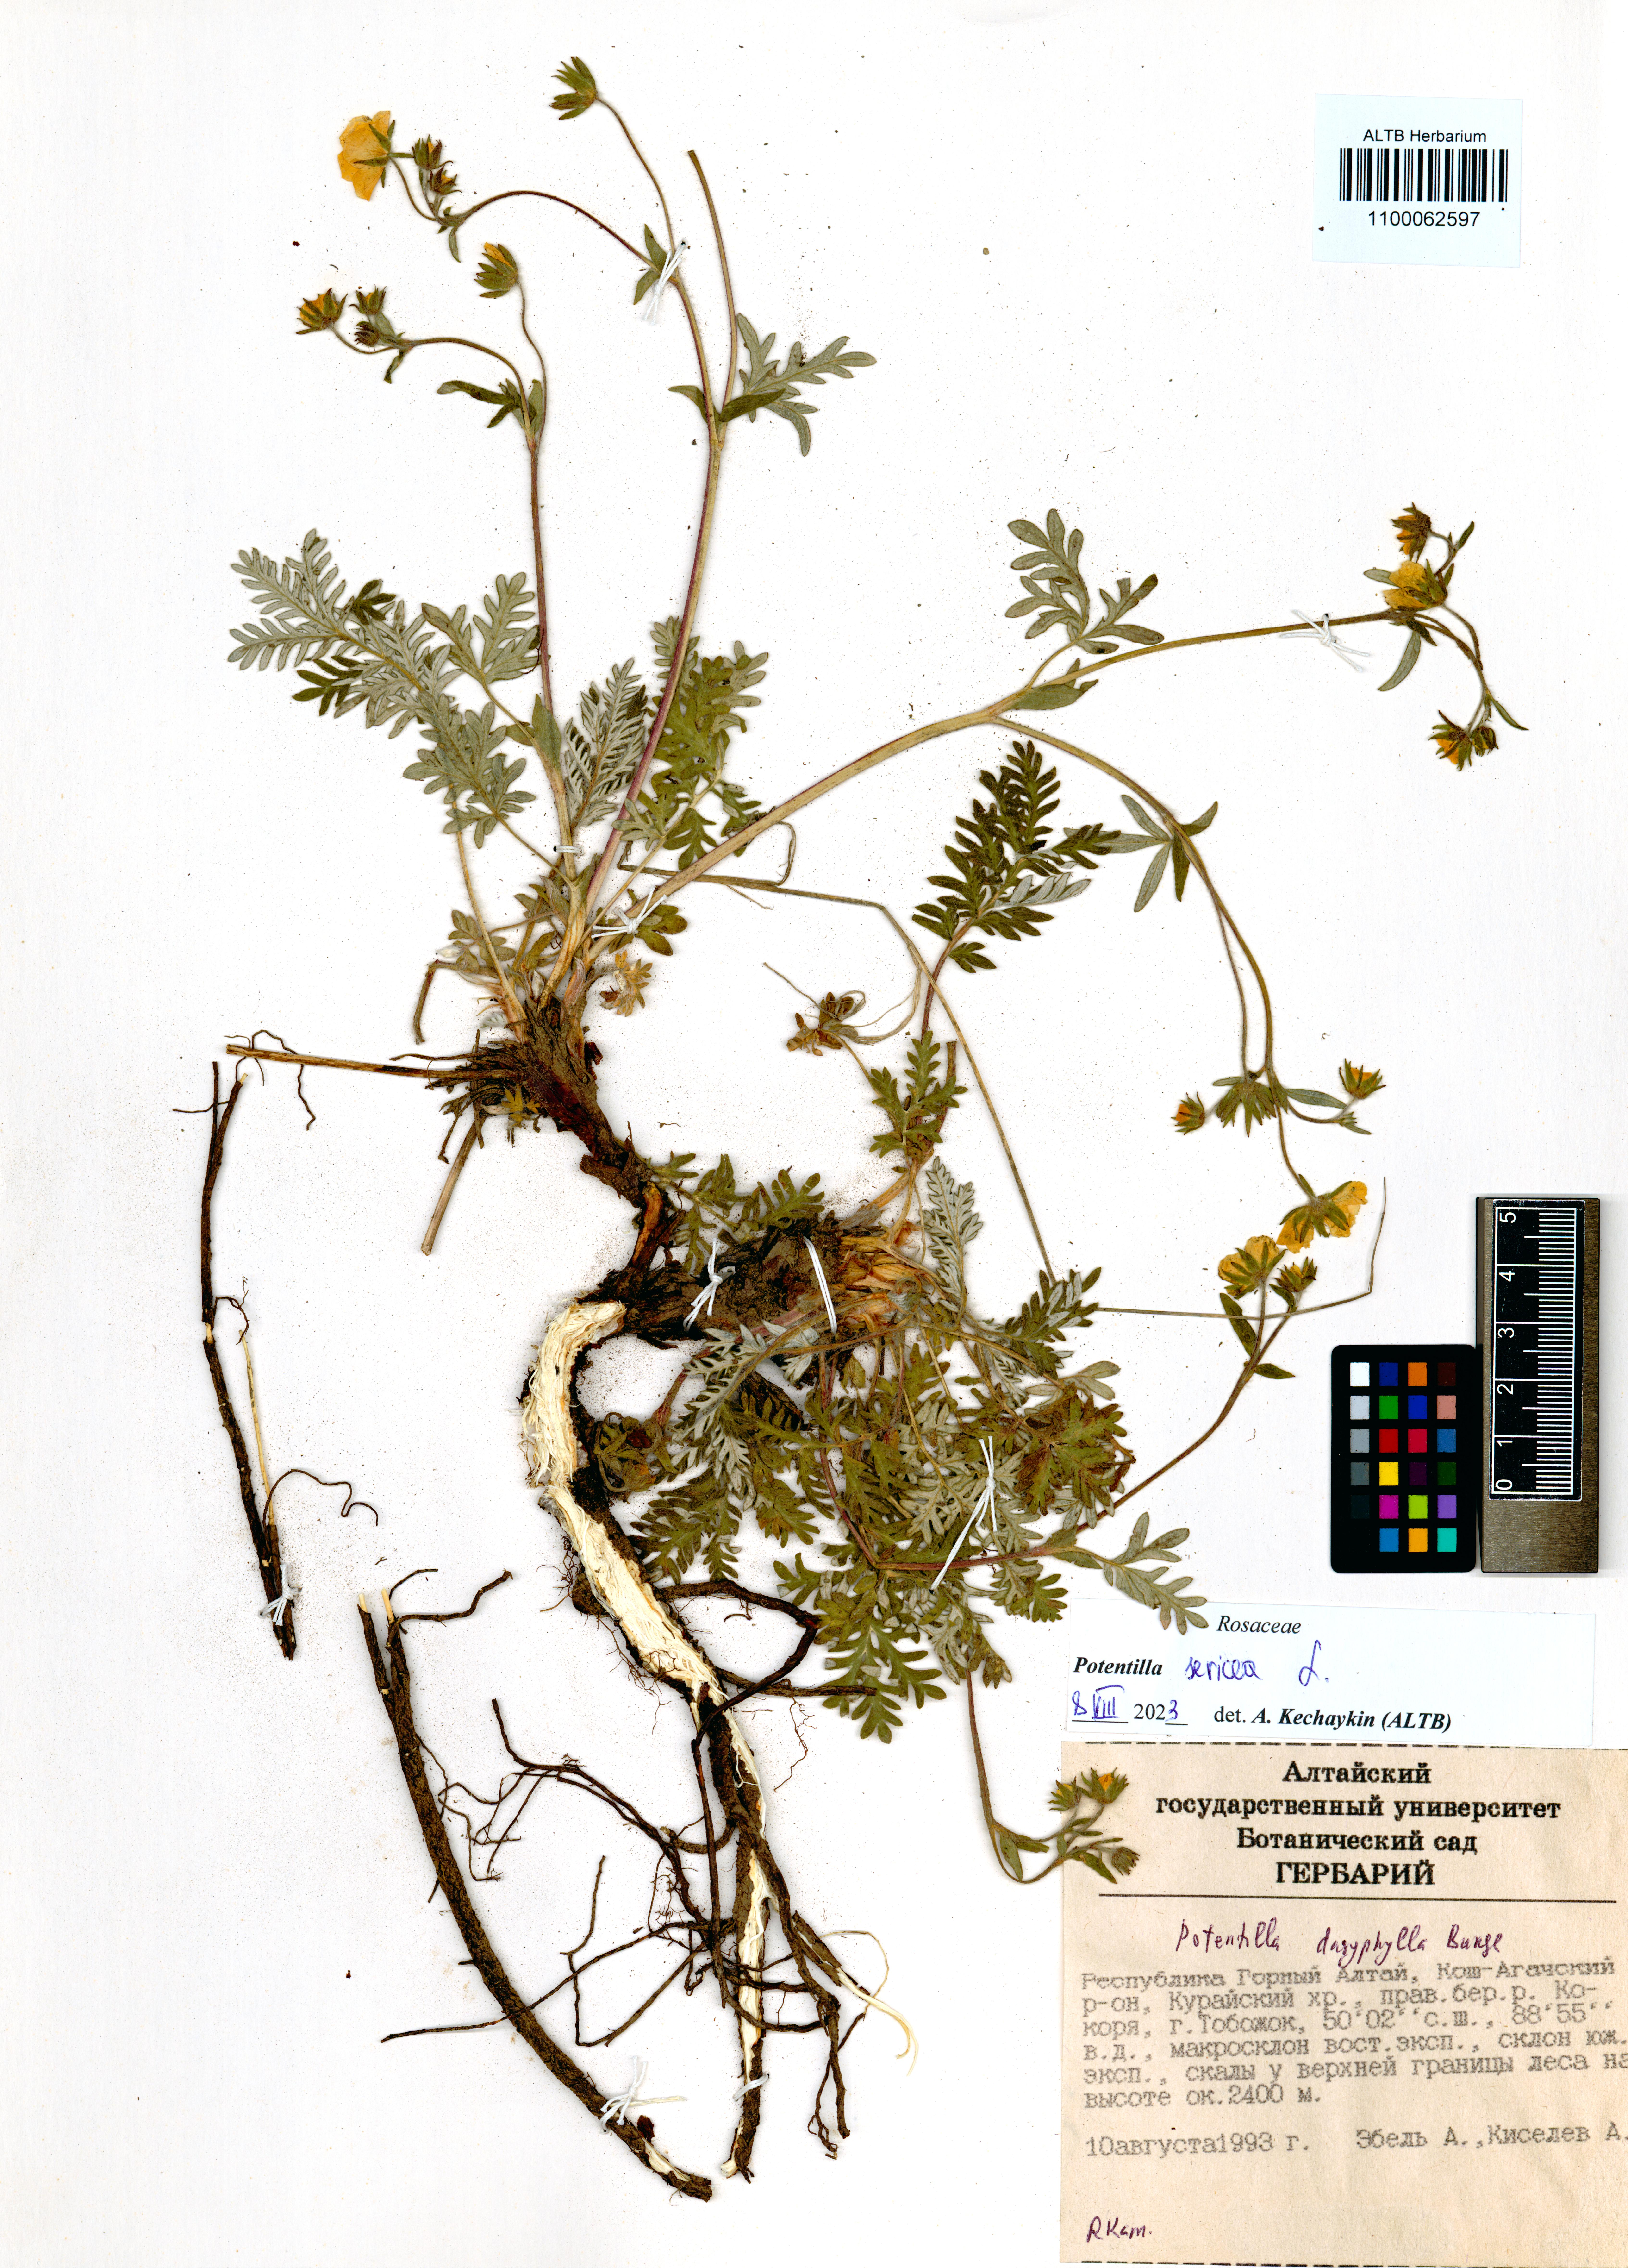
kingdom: Plantae
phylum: Tracheophyta
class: Magnoliopsida
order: Rosales
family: Rosaceae
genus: Potentilla
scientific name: Potentilla sericea
